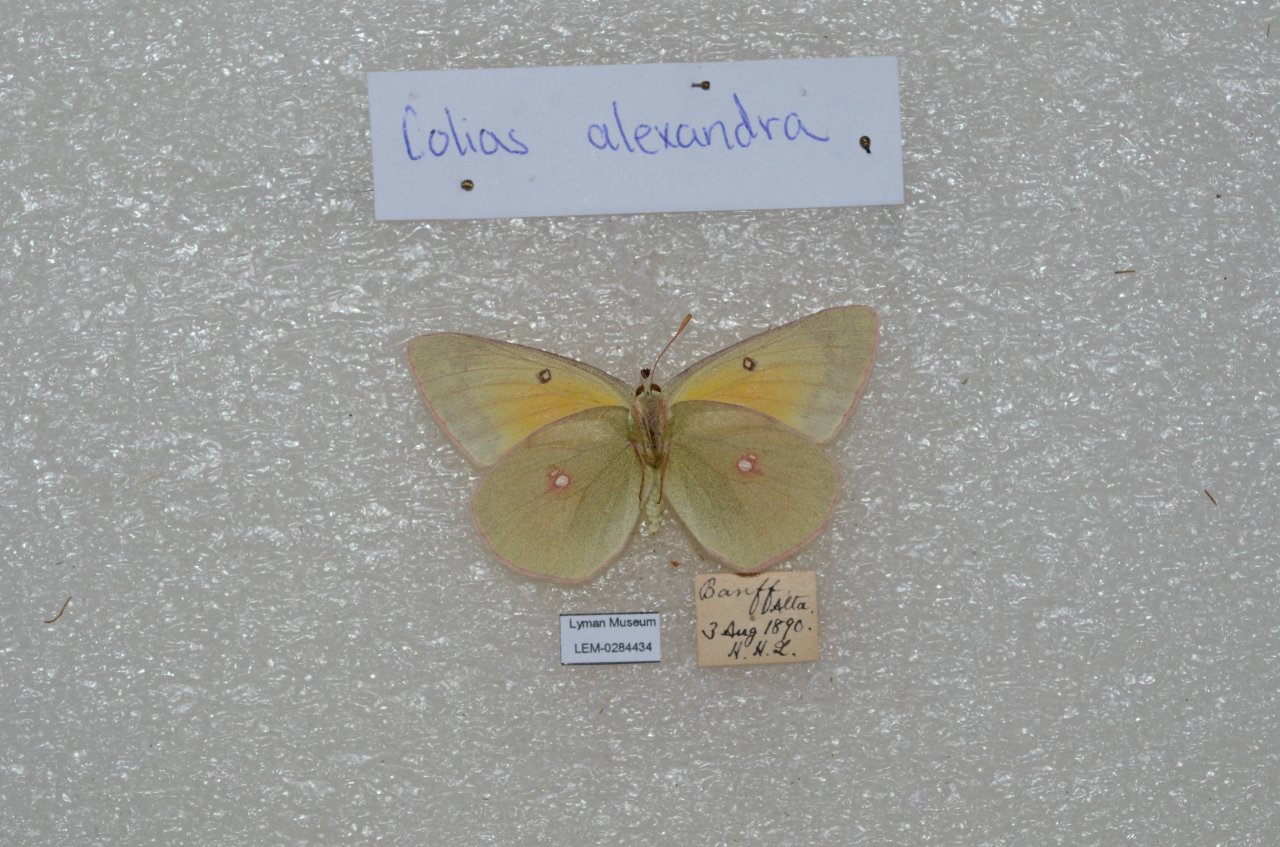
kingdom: Animalia
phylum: Arthropoda
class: Insecta
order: Lepidoptera
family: Pieridae
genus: Colias
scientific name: Colias alexandra
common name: Queen Alexandra's Sulphur
